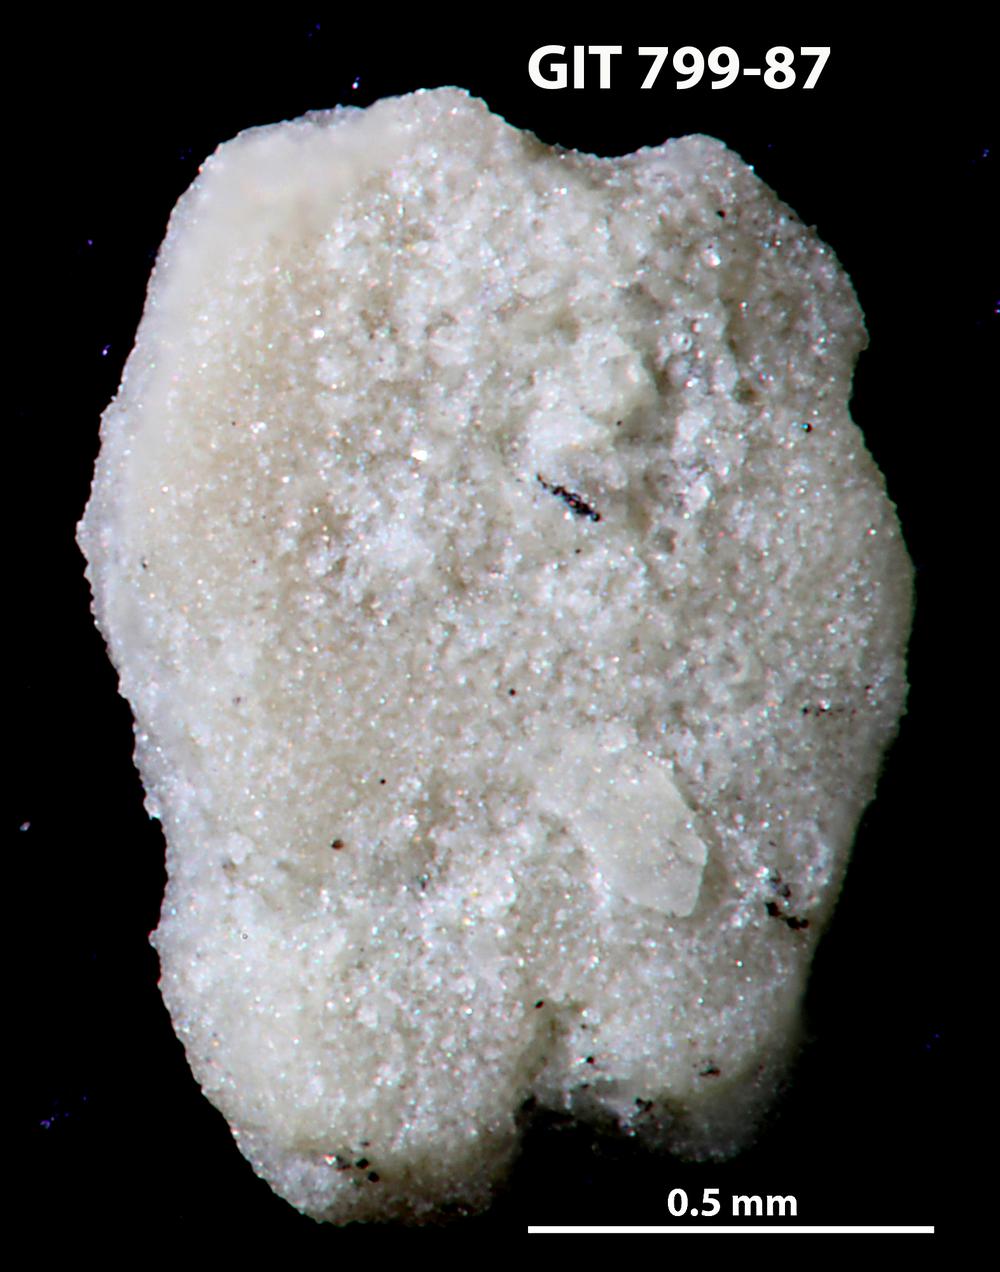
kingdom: Animalia
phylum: Echinodermata
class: Echinoidea
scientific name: Echinoidea
